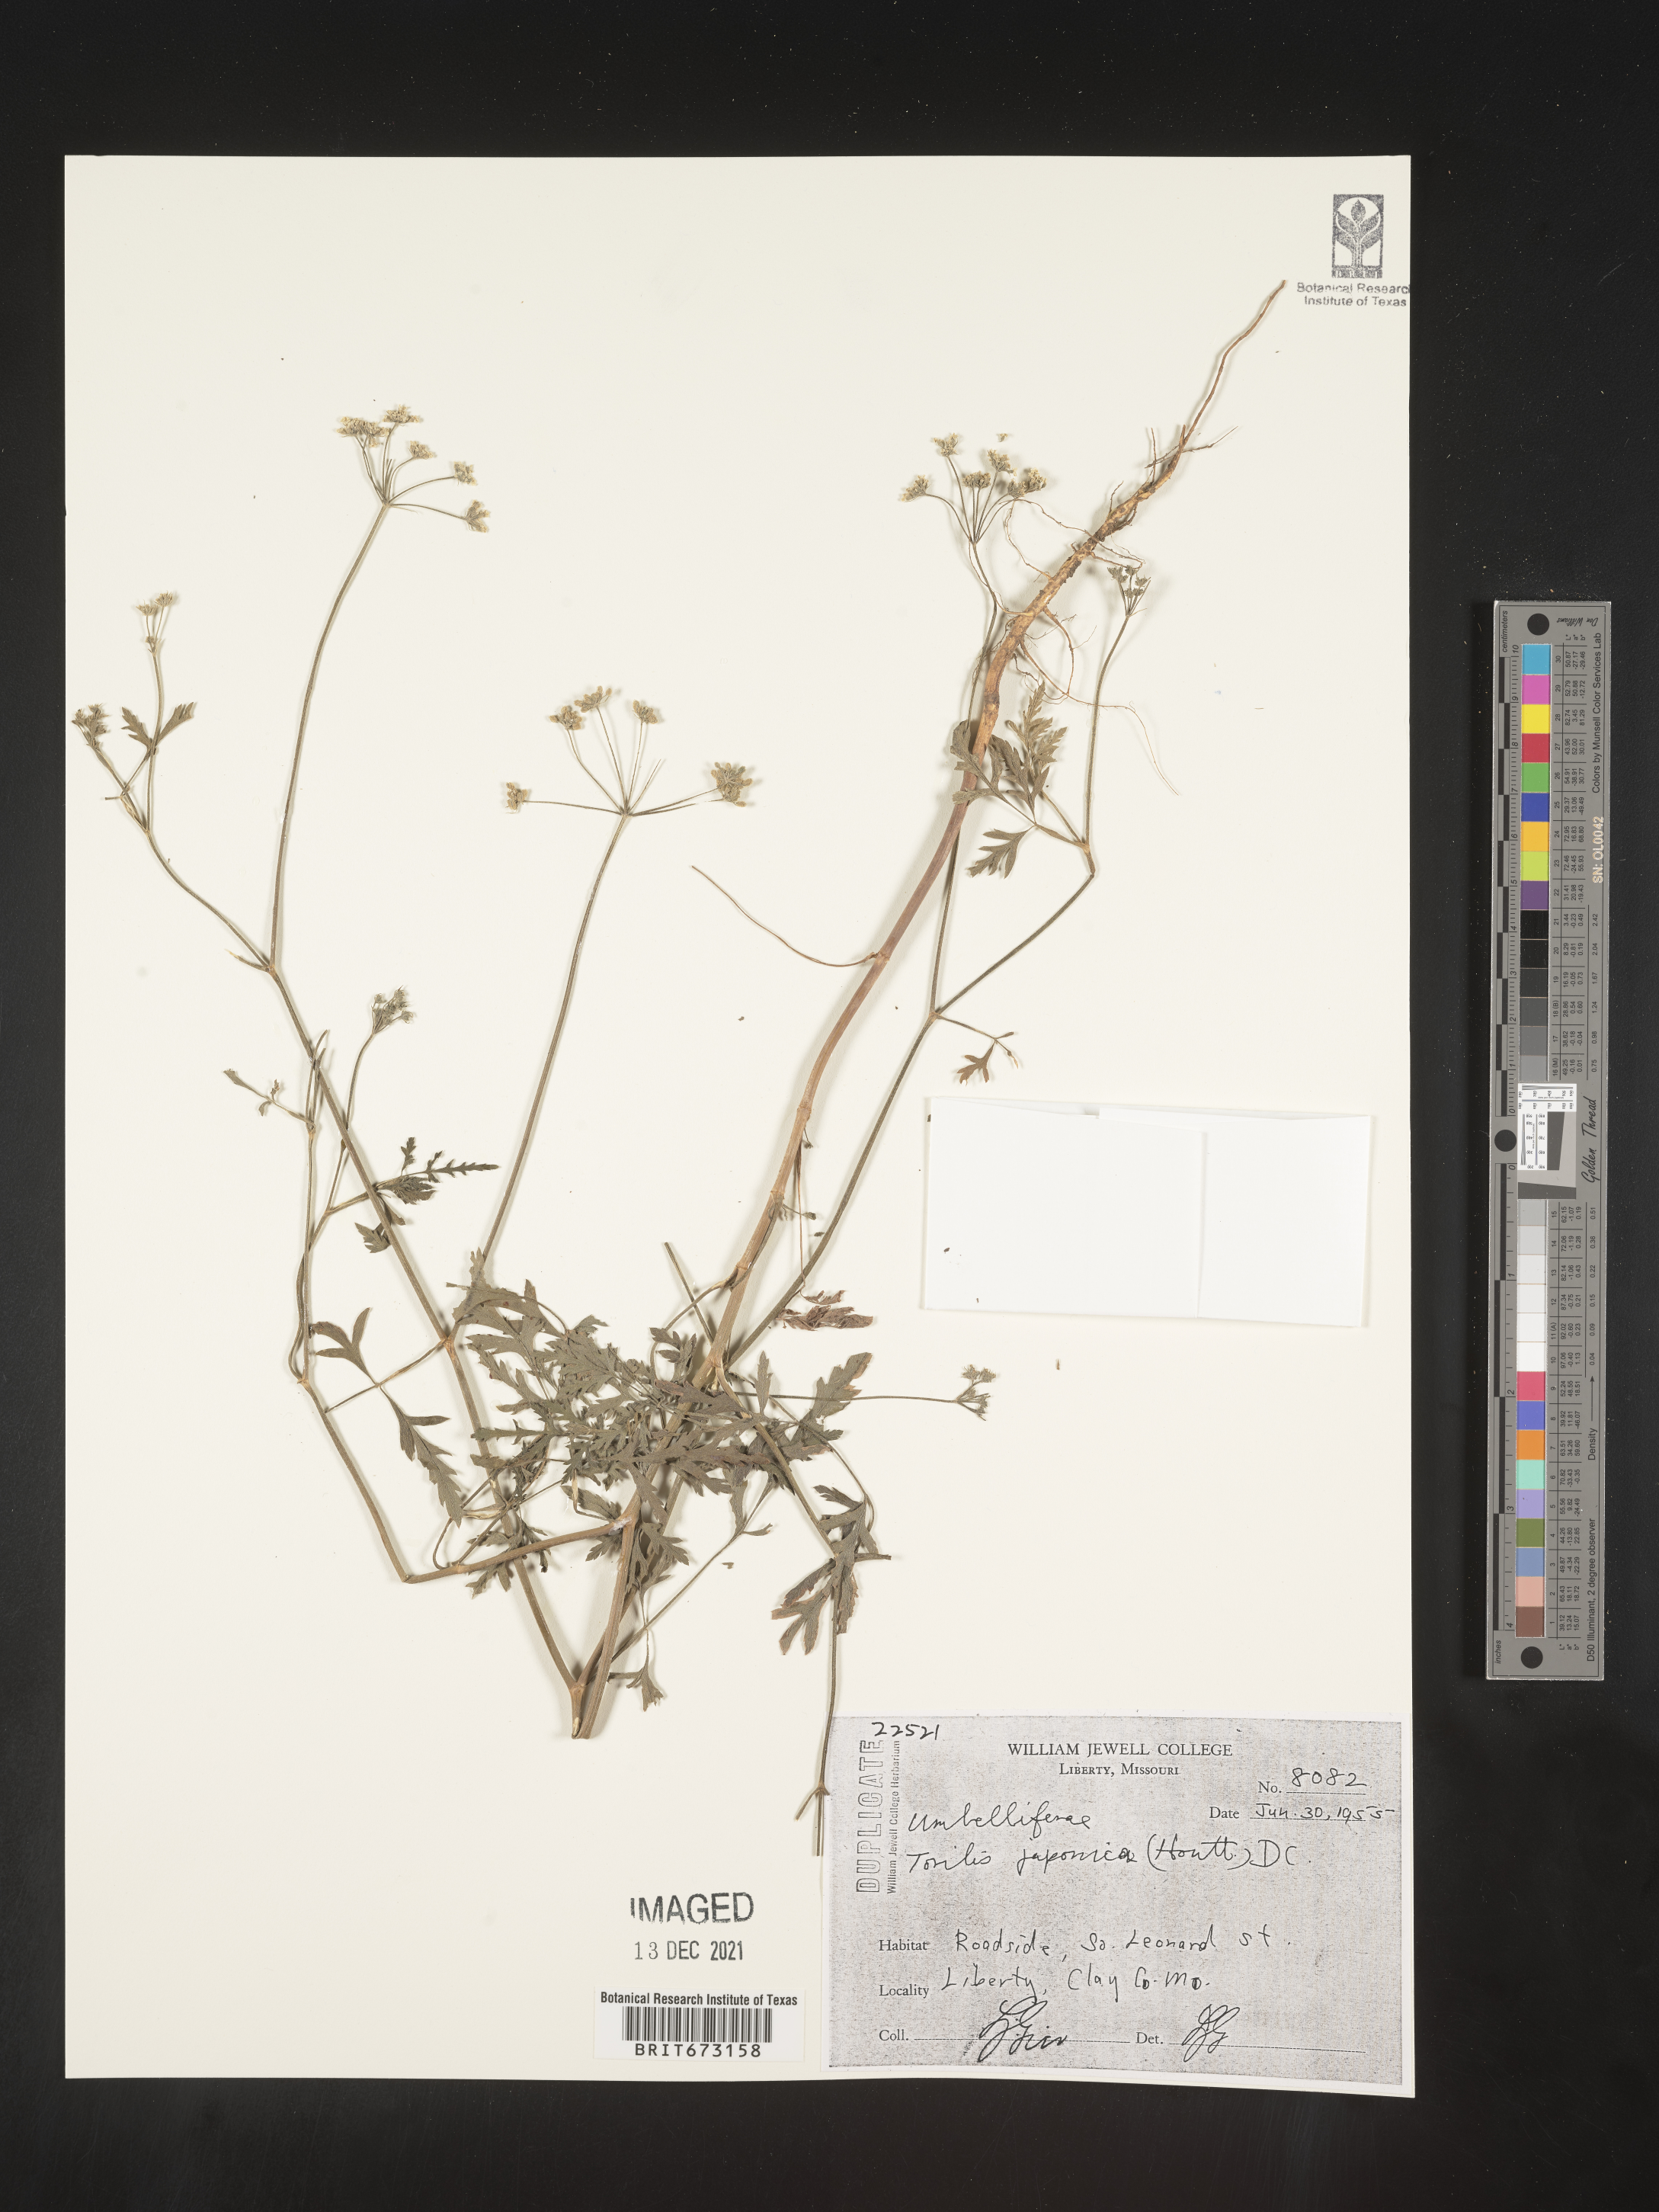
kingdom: Plantae
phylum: Tracheophyta
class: Magnoliopsida
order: Apiales
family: Apiaceae
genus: Torilis
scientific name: Torilis arvensis
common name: Spreading hedge-parsley
